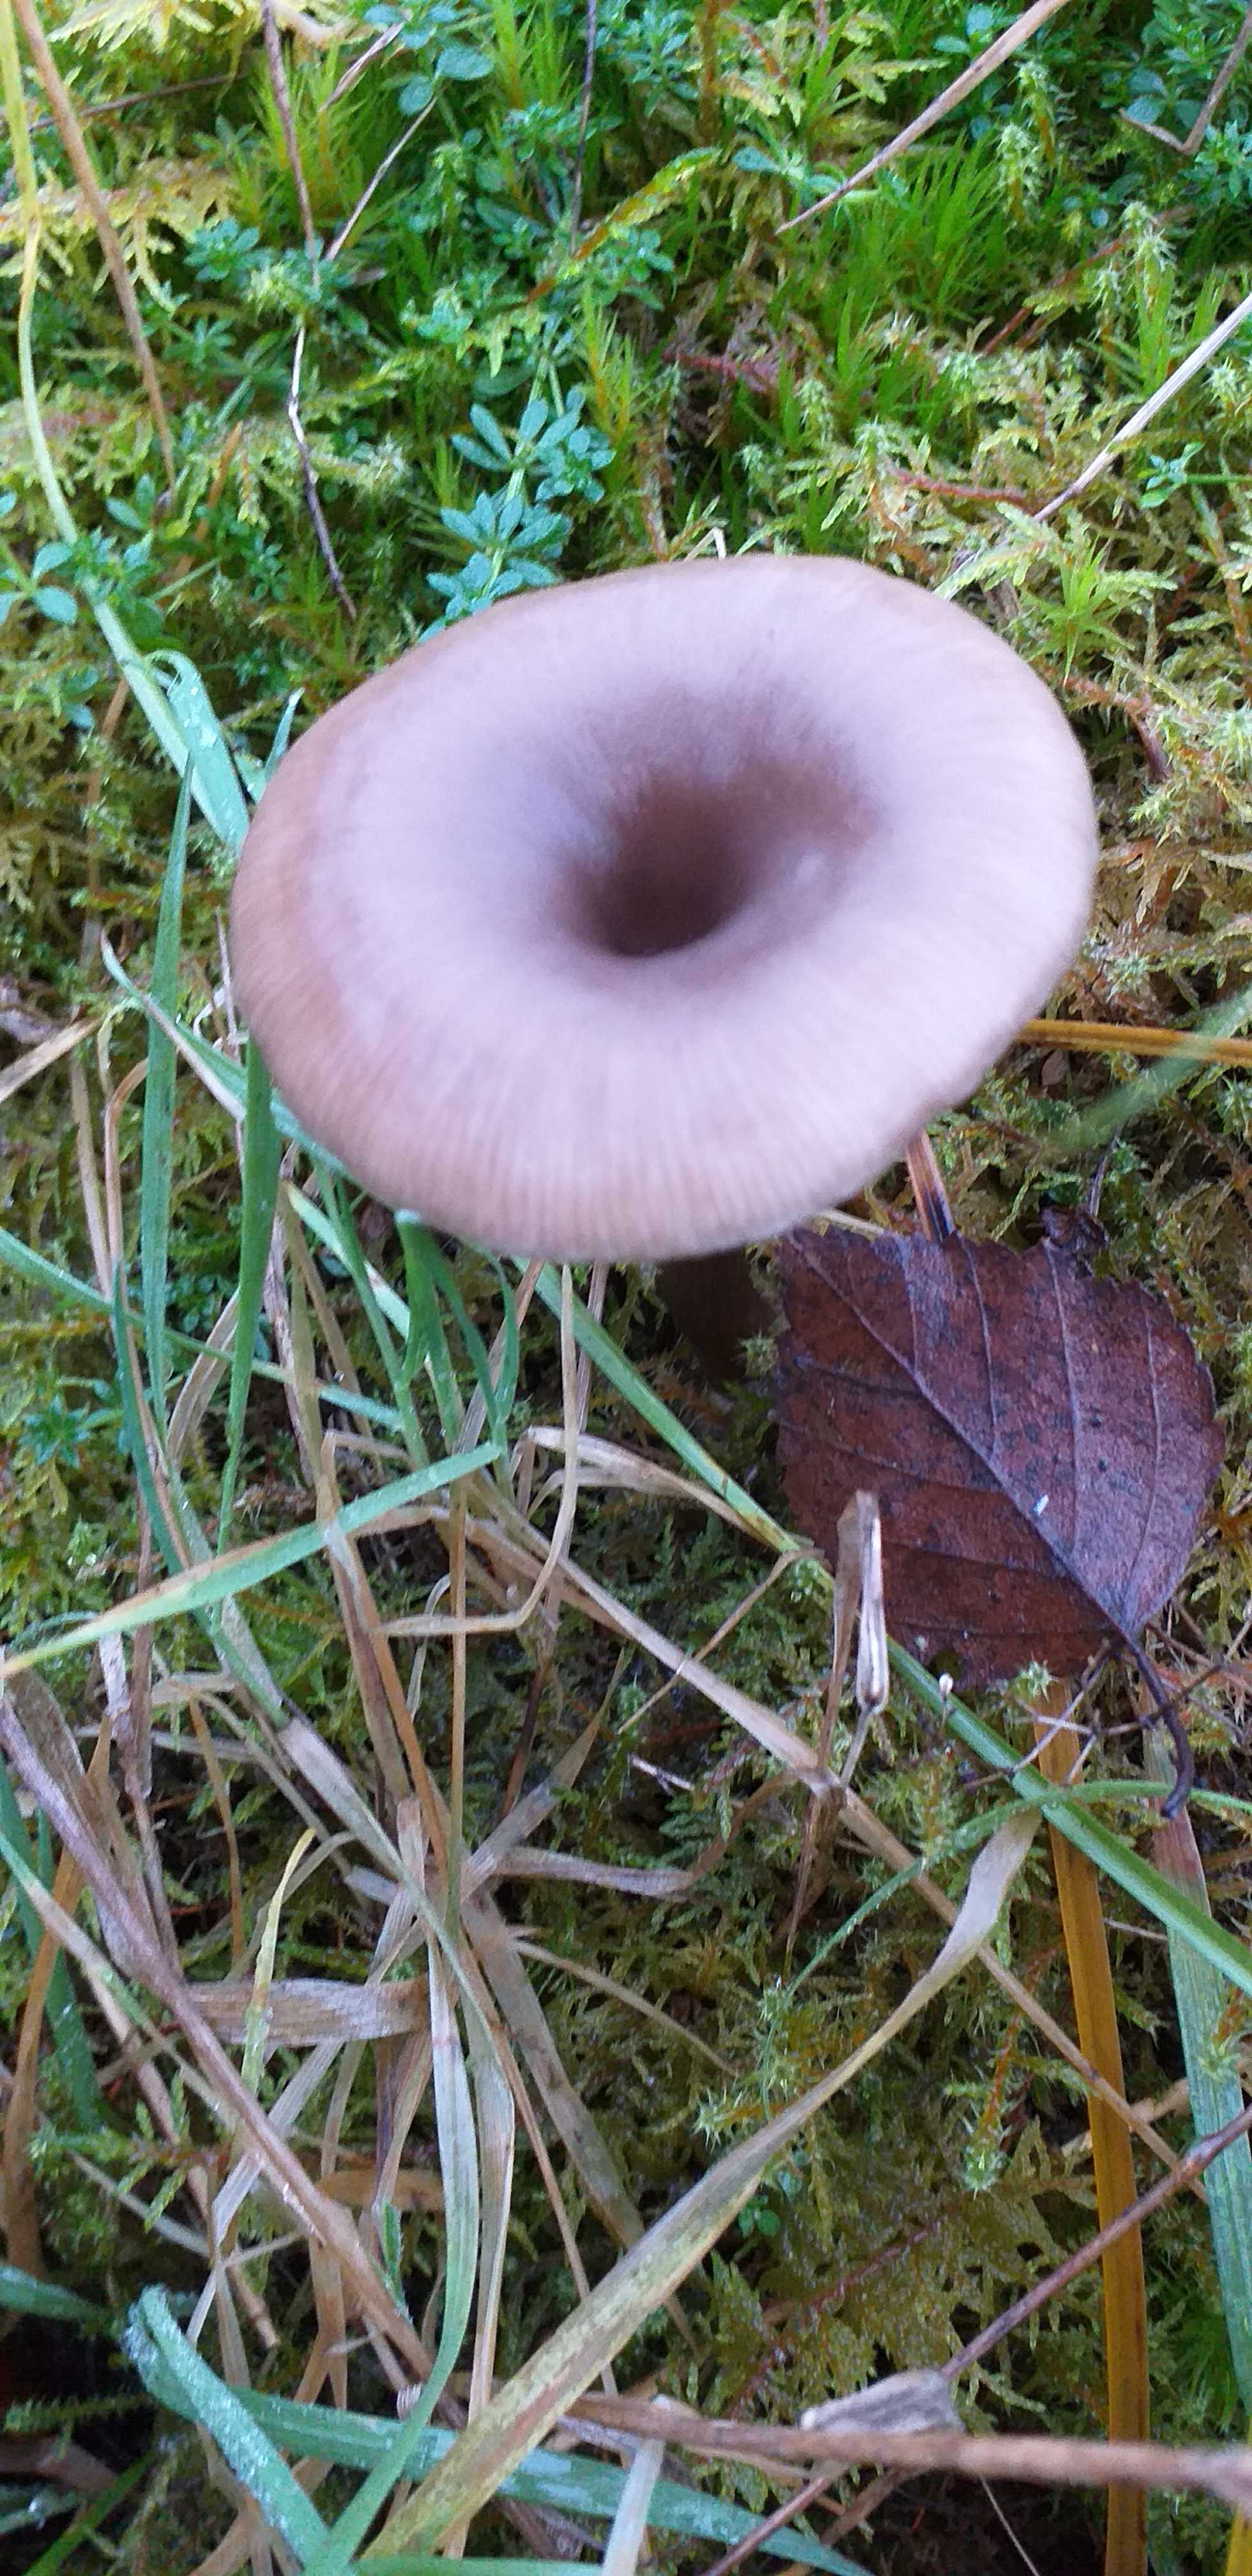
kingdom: Fungi
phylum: Basidiomycota
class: Agaricomycetes
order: Agaricales
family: Pseudoclitocybaceae
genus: Pseudoclitocybe
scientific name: Pseudoclitocybe cyathiformis
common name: almindelig bægertragthat
